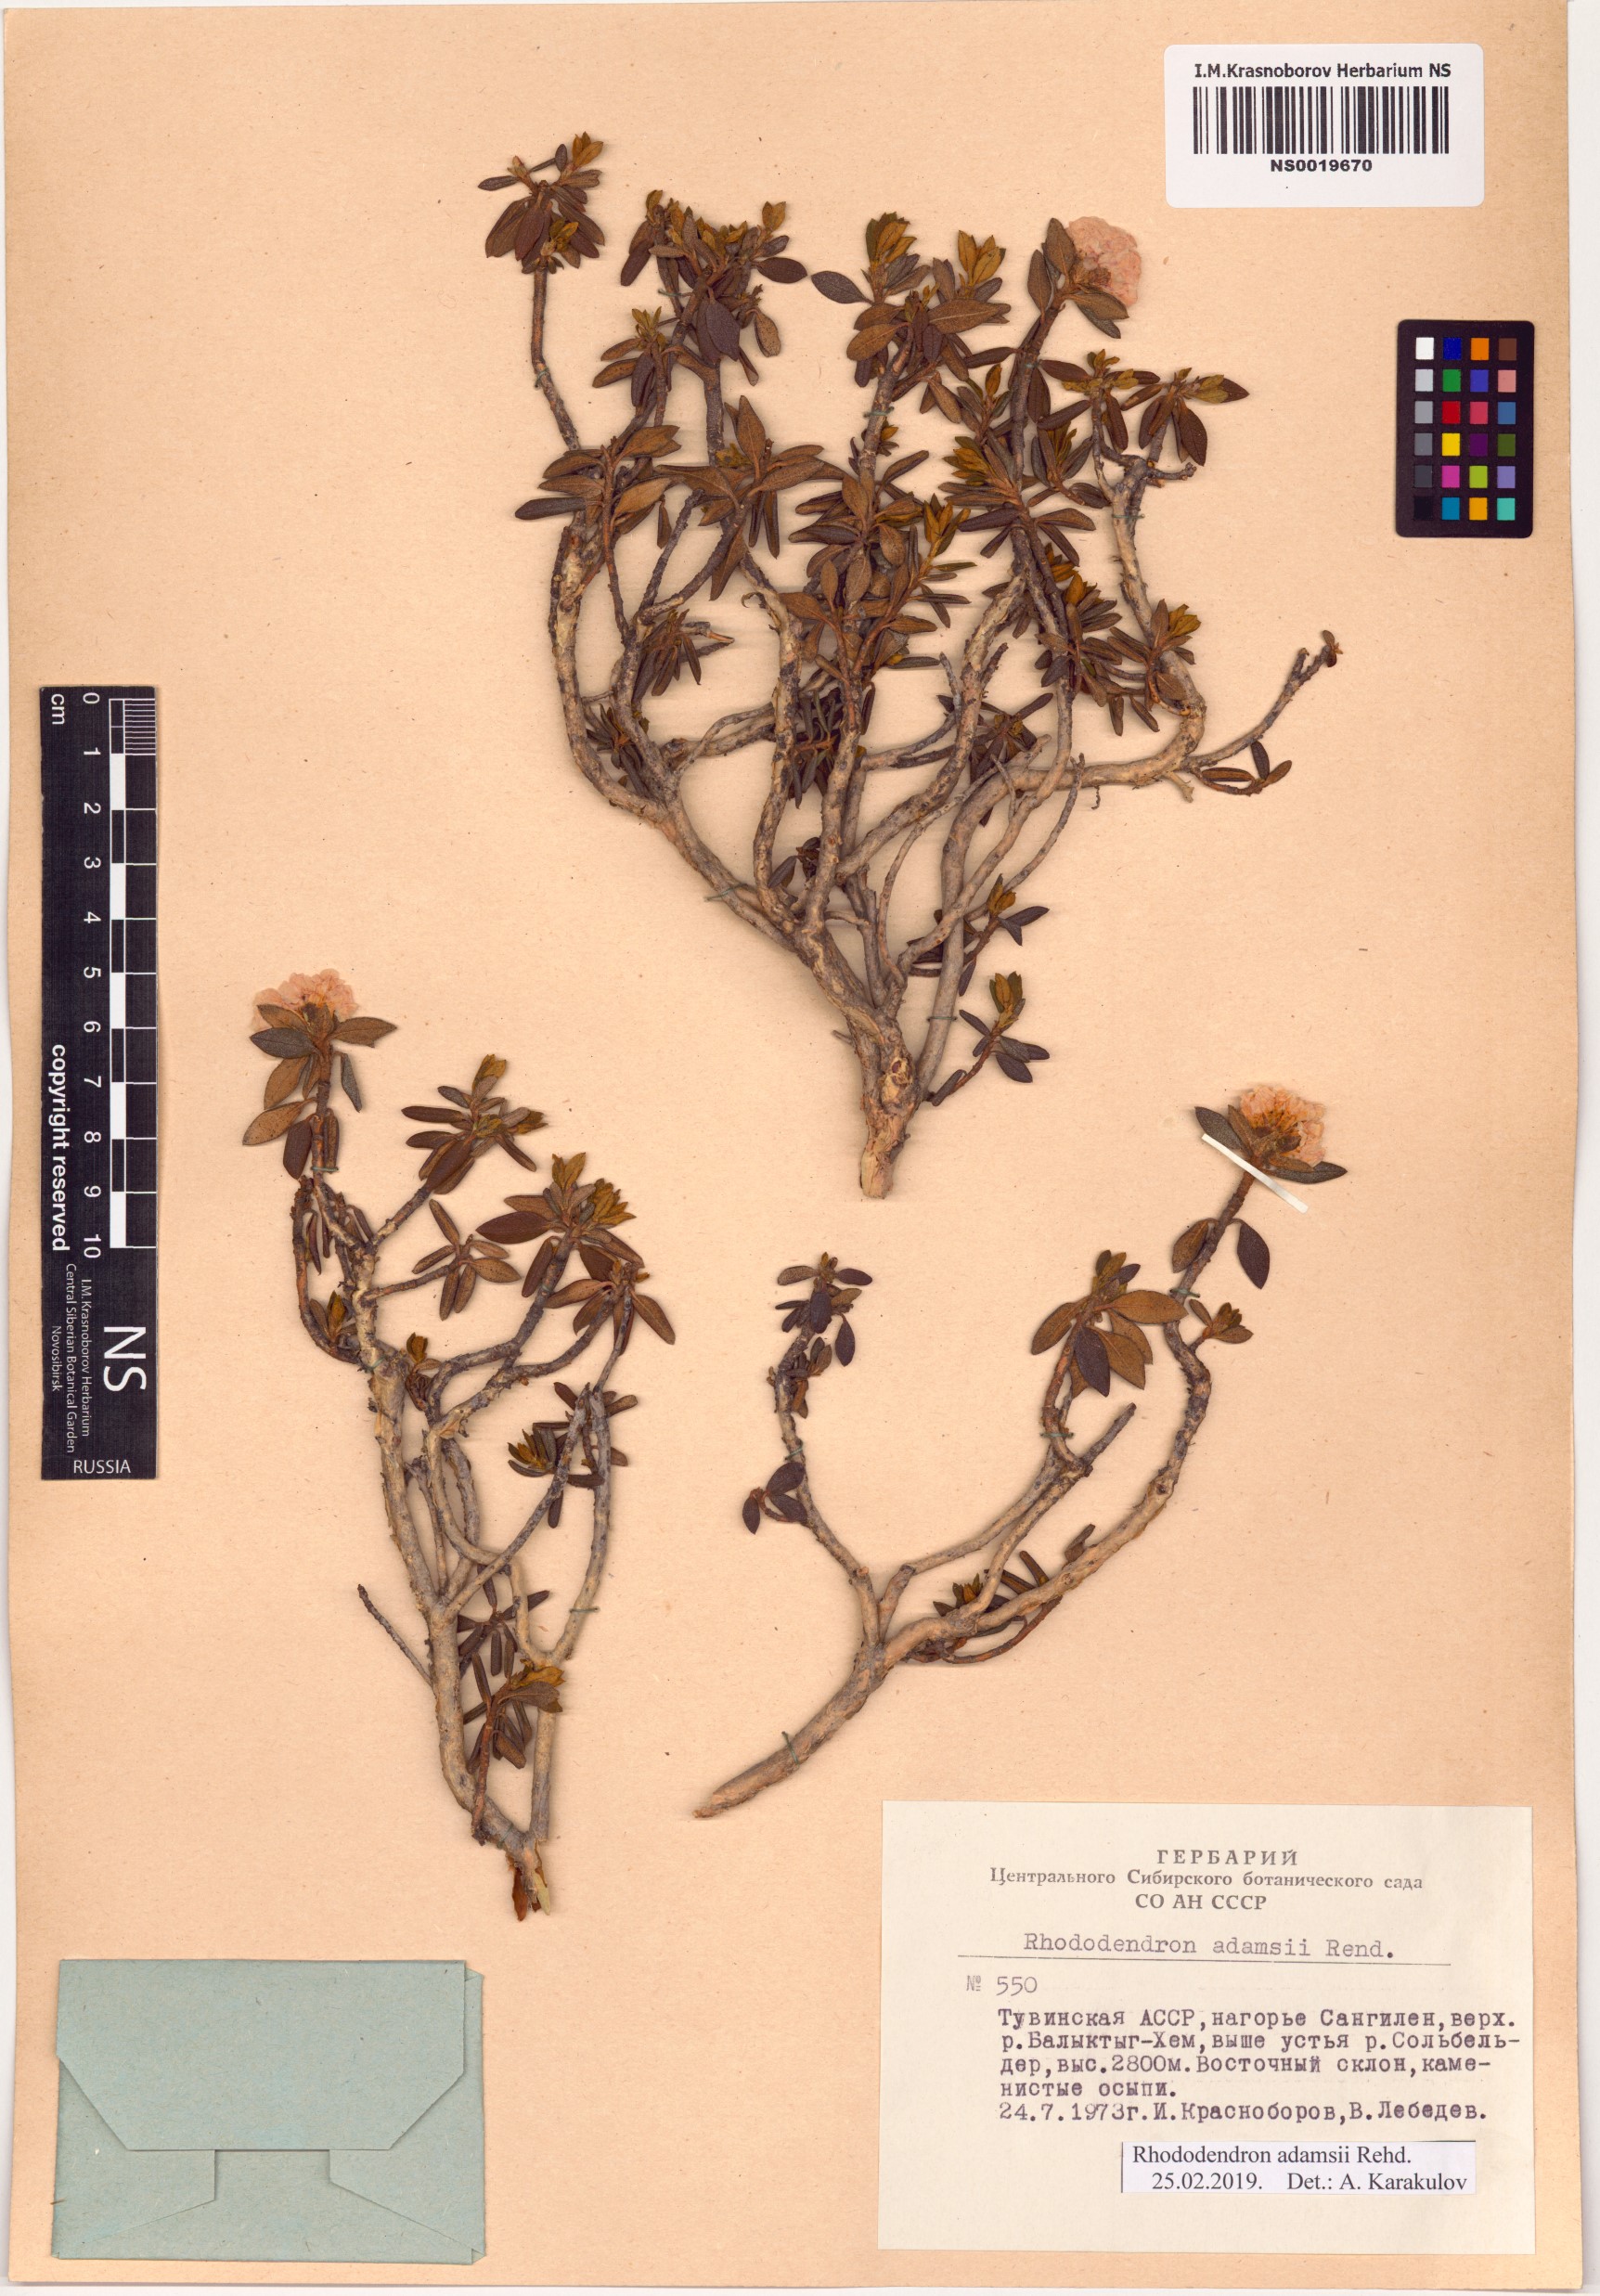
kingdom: Plantae
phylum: Tracheophyta
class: Magnoliopsida
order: Ericales
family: Ericaceae
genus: Rhododendron
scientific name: Rhododendron adamsii
